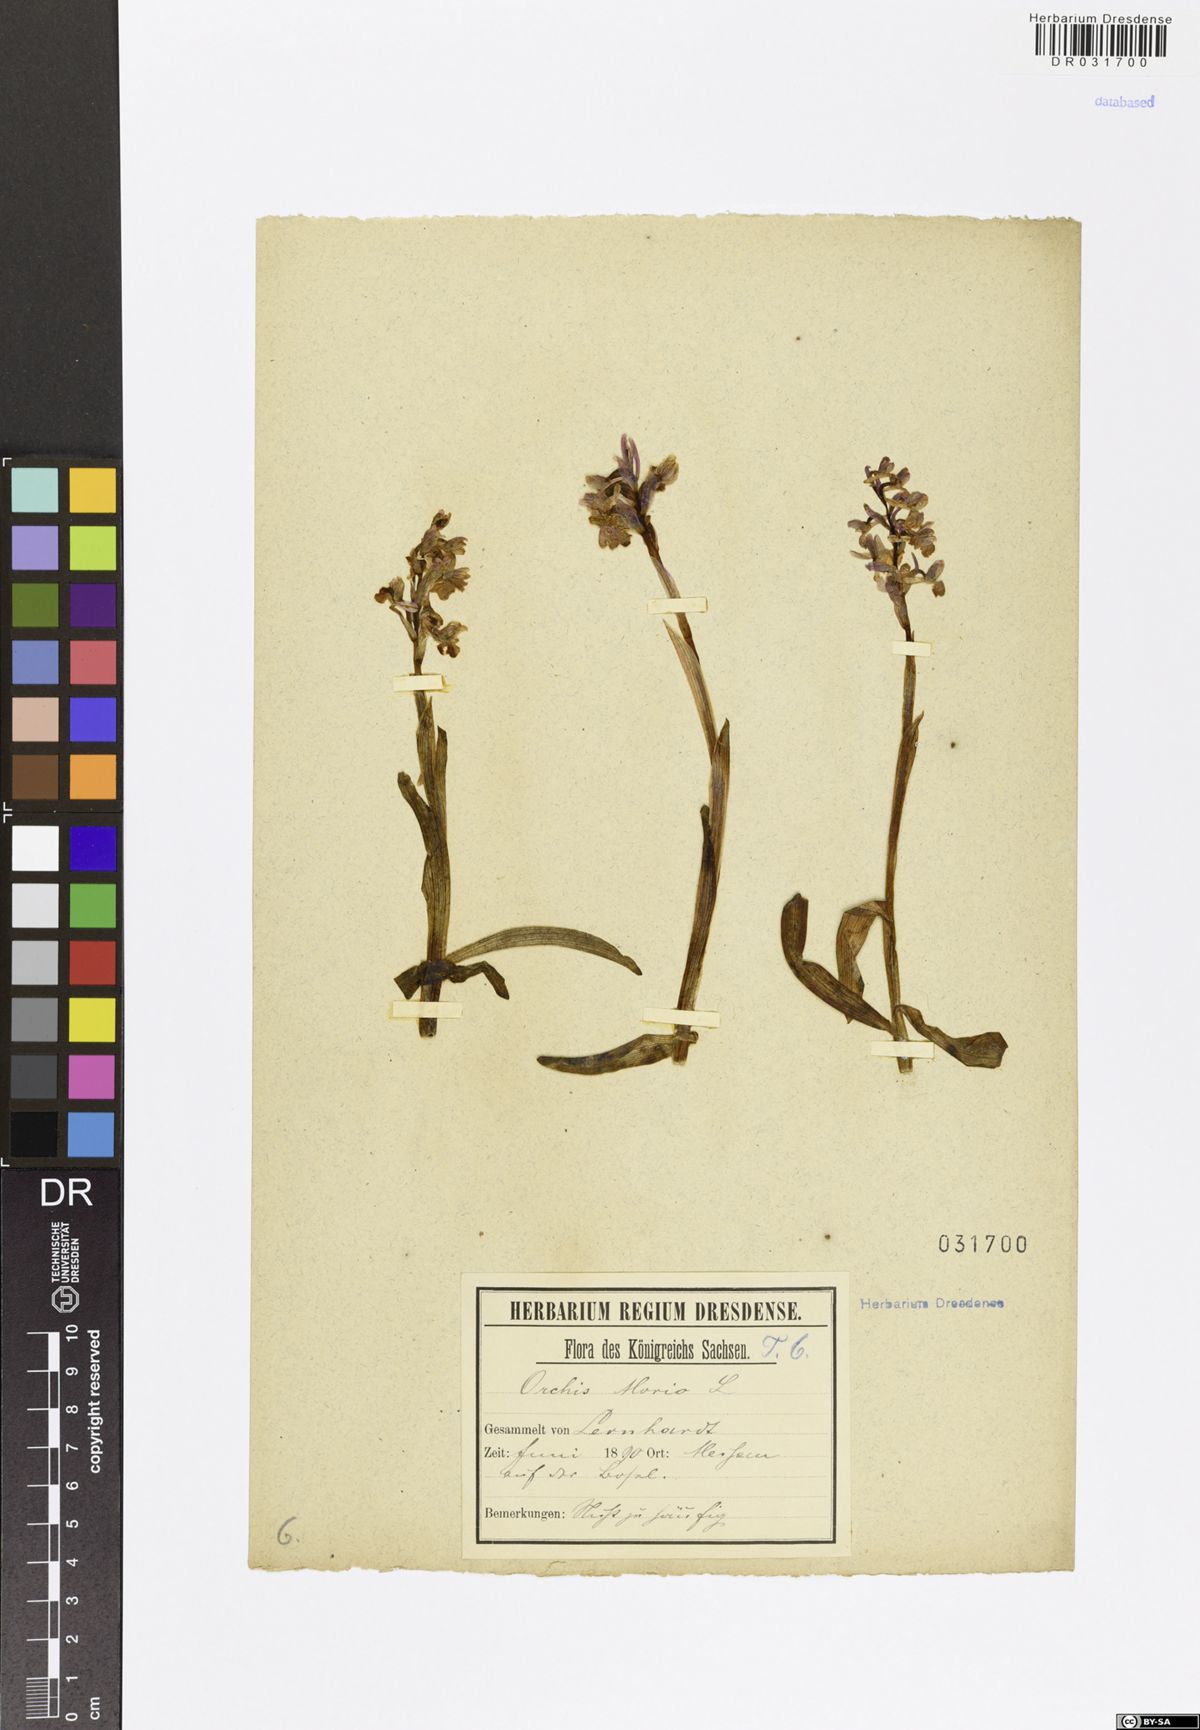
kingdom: Plantae
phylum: Tracheophyta
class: Liliopsida
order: Asparagales
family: Orchidaceae
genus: Anacamptis
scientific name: Anacamptis morio
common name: Green-winged orchid
